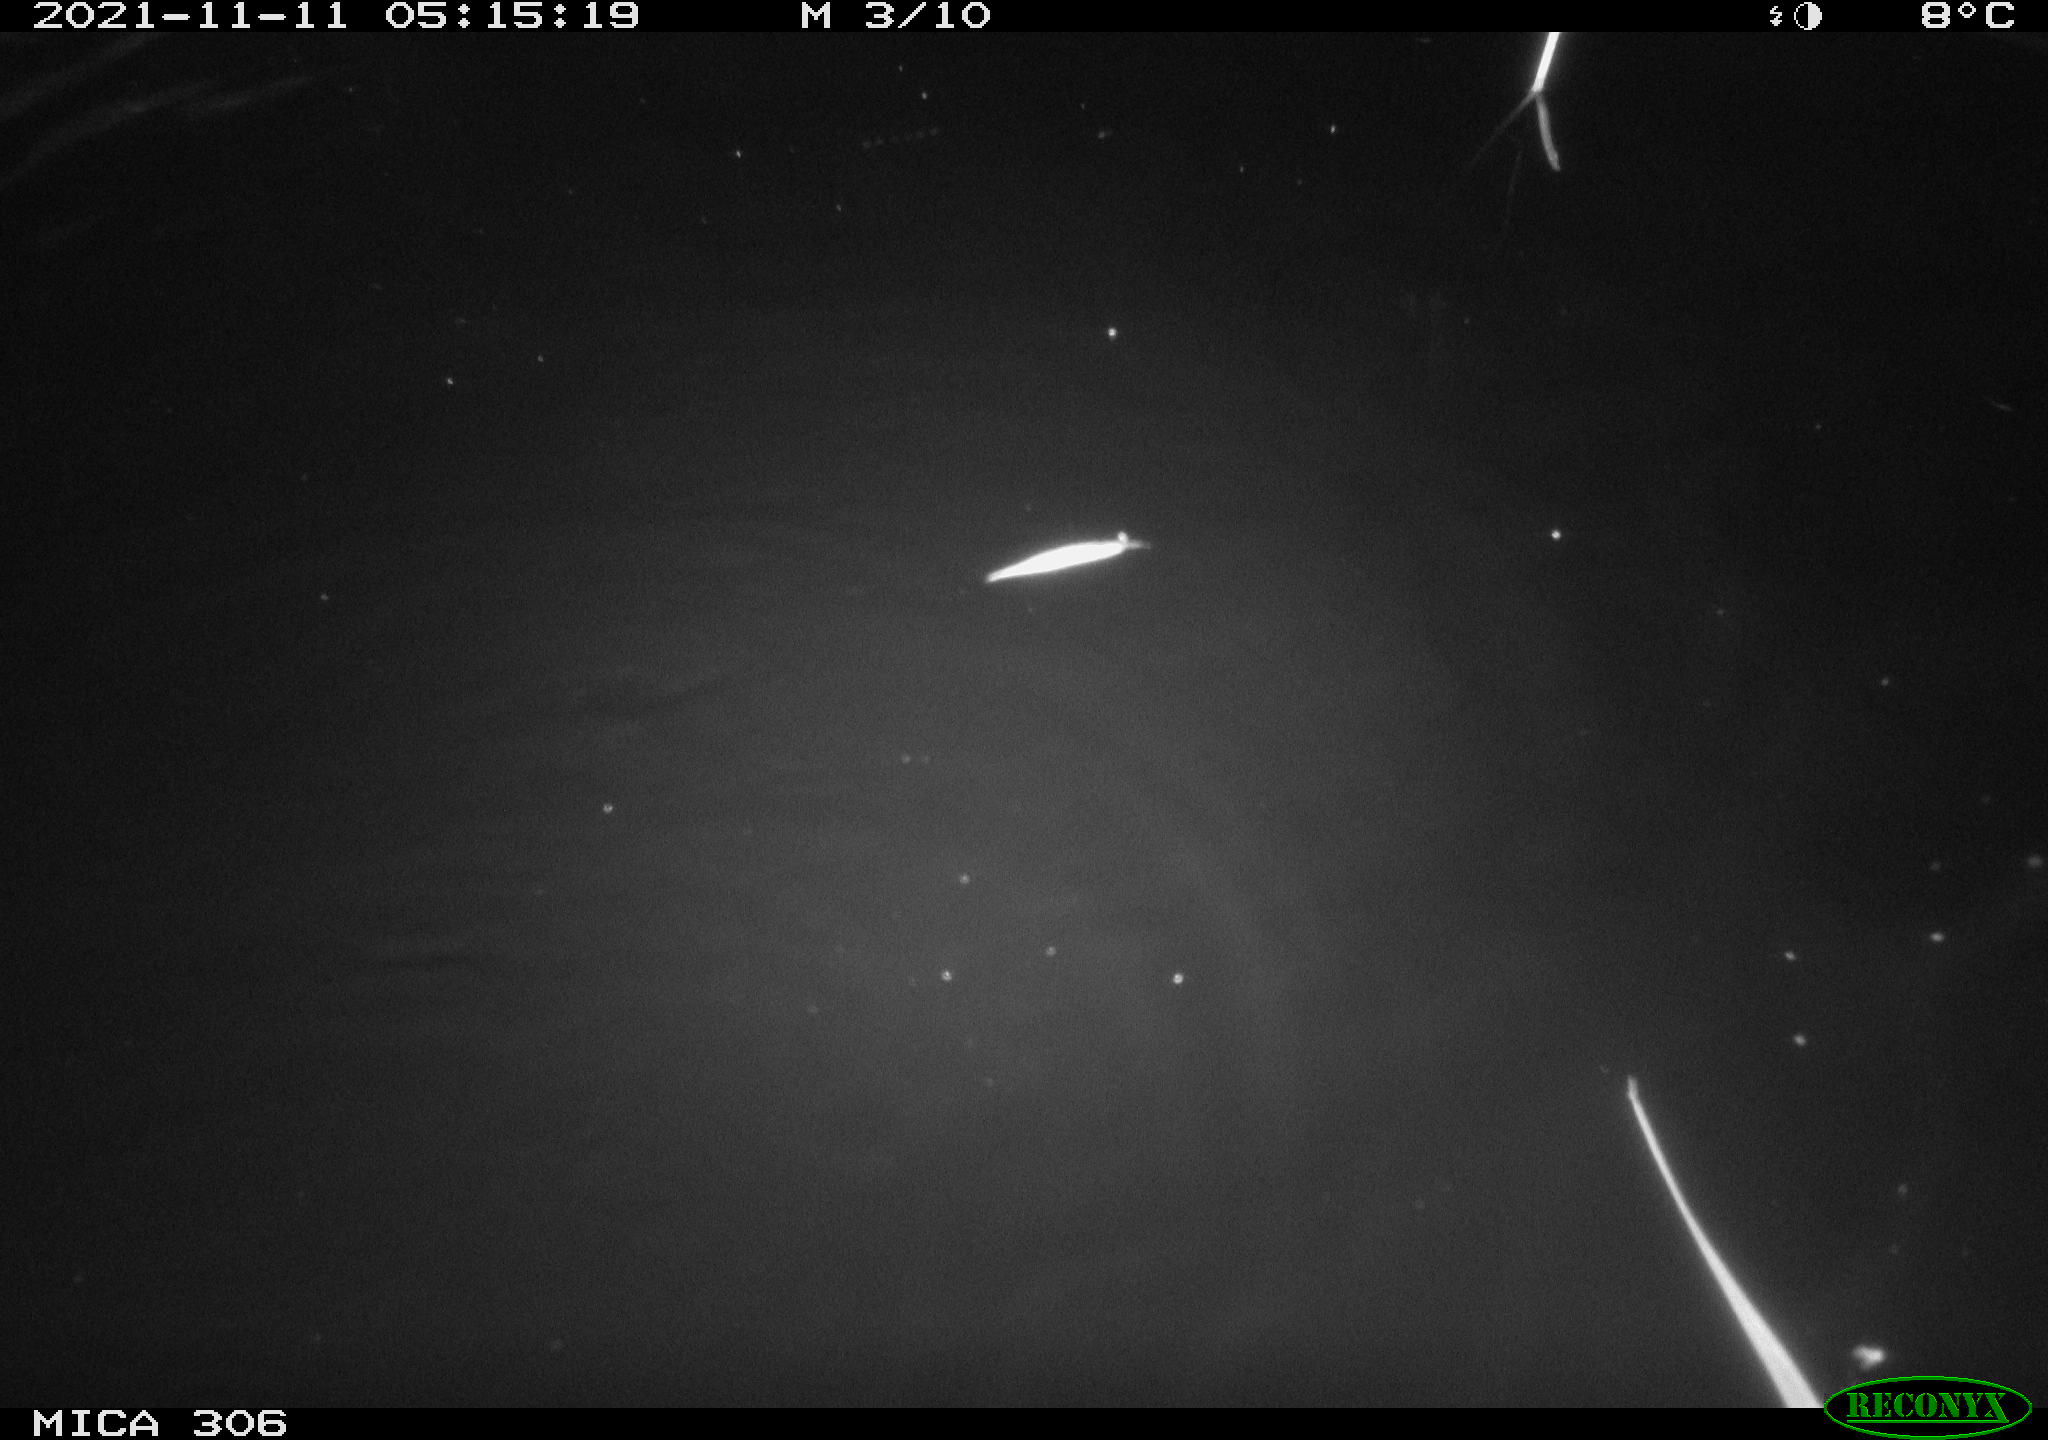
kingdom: Animalia
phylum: Chordata
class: Mammalia
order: Rodentia
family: Cricetidae
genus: Ondatra
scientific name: Ondatra zibethicus
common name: Muskrat
